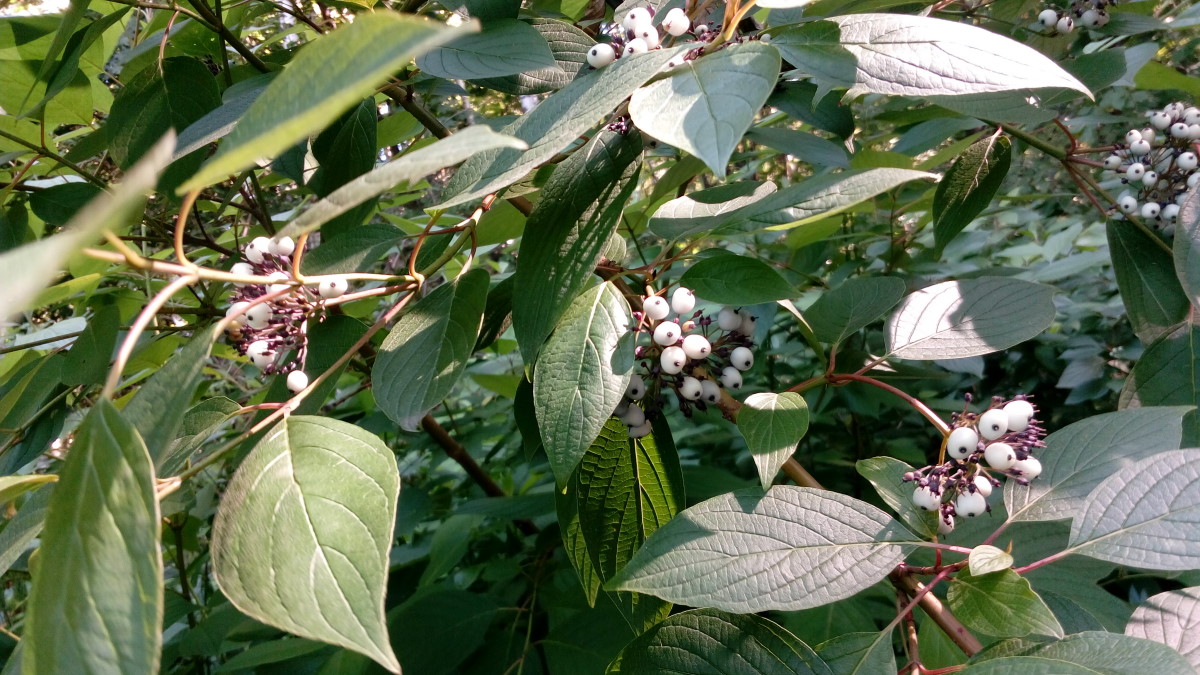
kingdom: Plantae
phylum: Tracheophyta
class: Magnoliopsida
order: Cornales
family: Cornaceae
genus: Cornus
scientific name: Cornus alba
